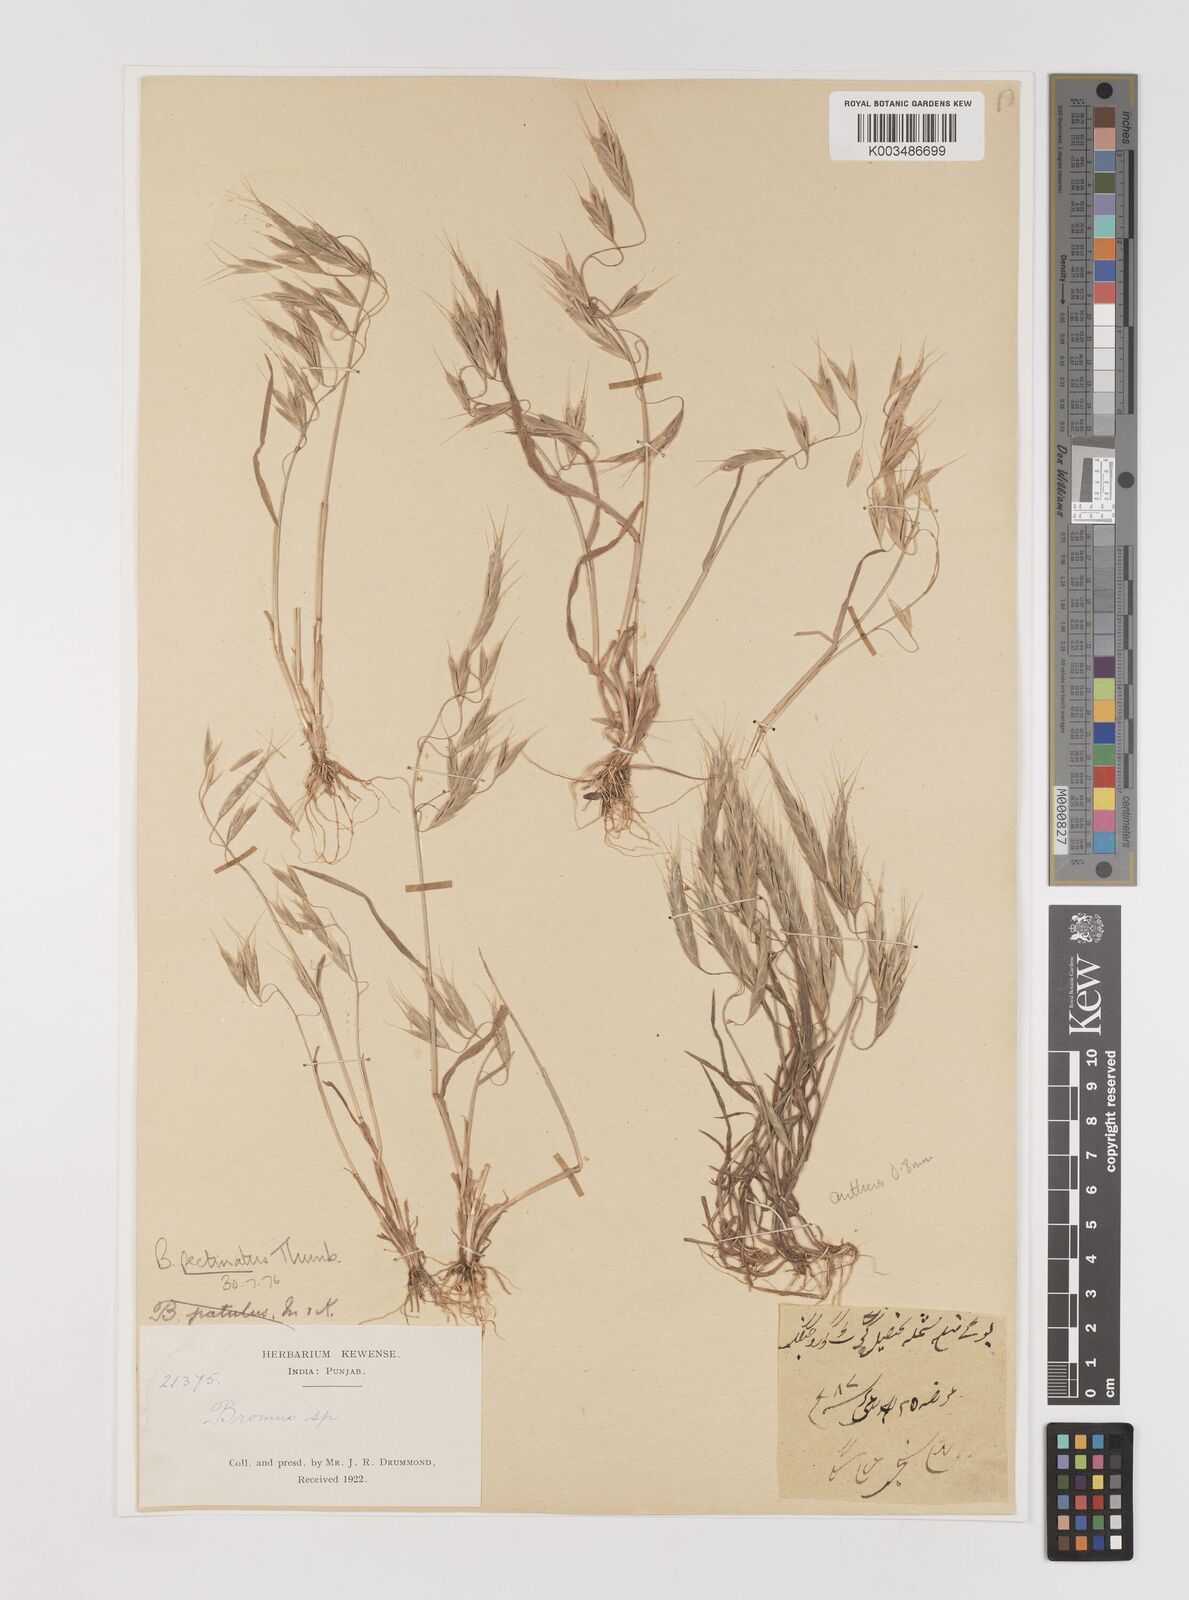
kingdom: Plantae
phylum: Tracheophyta
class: Liliopsida
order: Poales
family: Poaceae
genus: Bromus
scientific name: Bromus pectinatus
